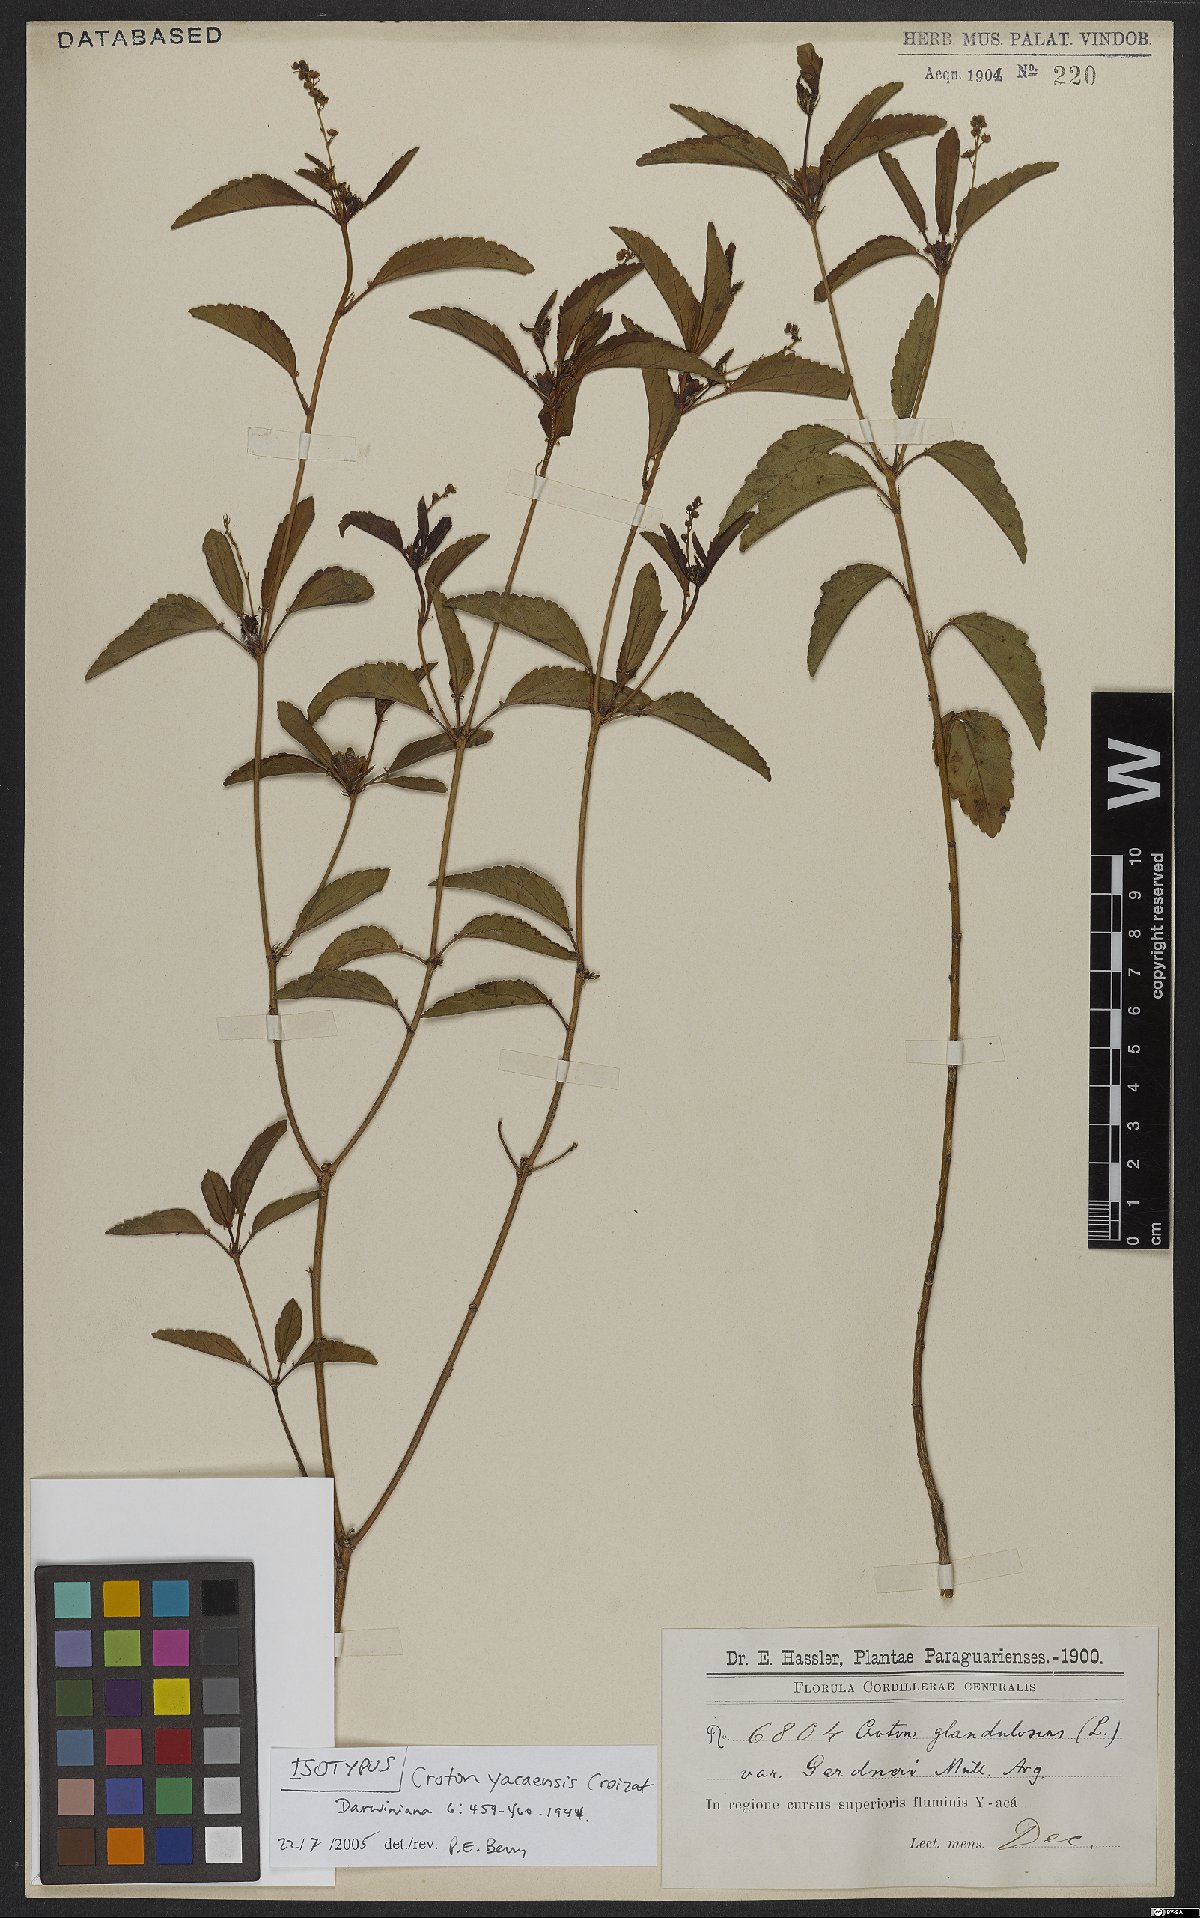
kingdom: Plantae
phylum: Tracheophyta
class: Magnoliopsida
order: Malpighiales
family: Euphorbiaceae
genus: Croton
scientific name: Croton lundianus
